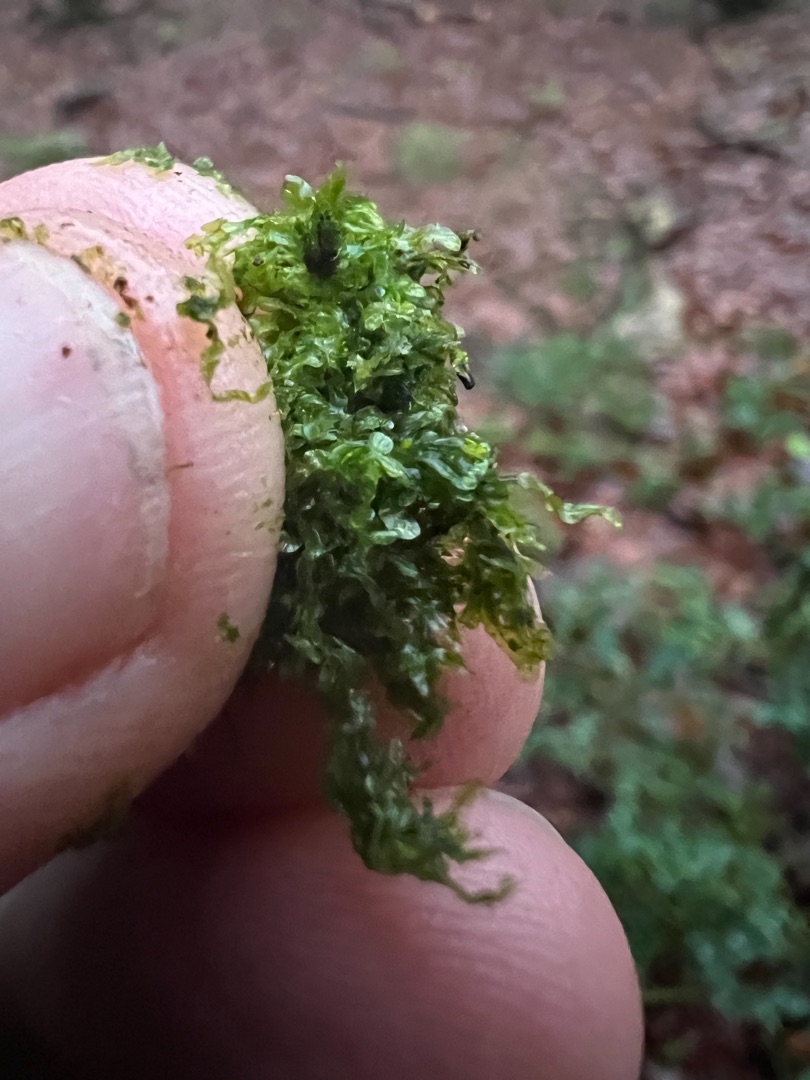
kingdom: Plantae
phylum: Marchantiophyta
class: Jungermanniopsida
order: Metzgeriales
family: Metzgeriaceae
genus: Metzgeria
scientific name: Metzgeria furcata
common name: Almindelig gaffelløv
